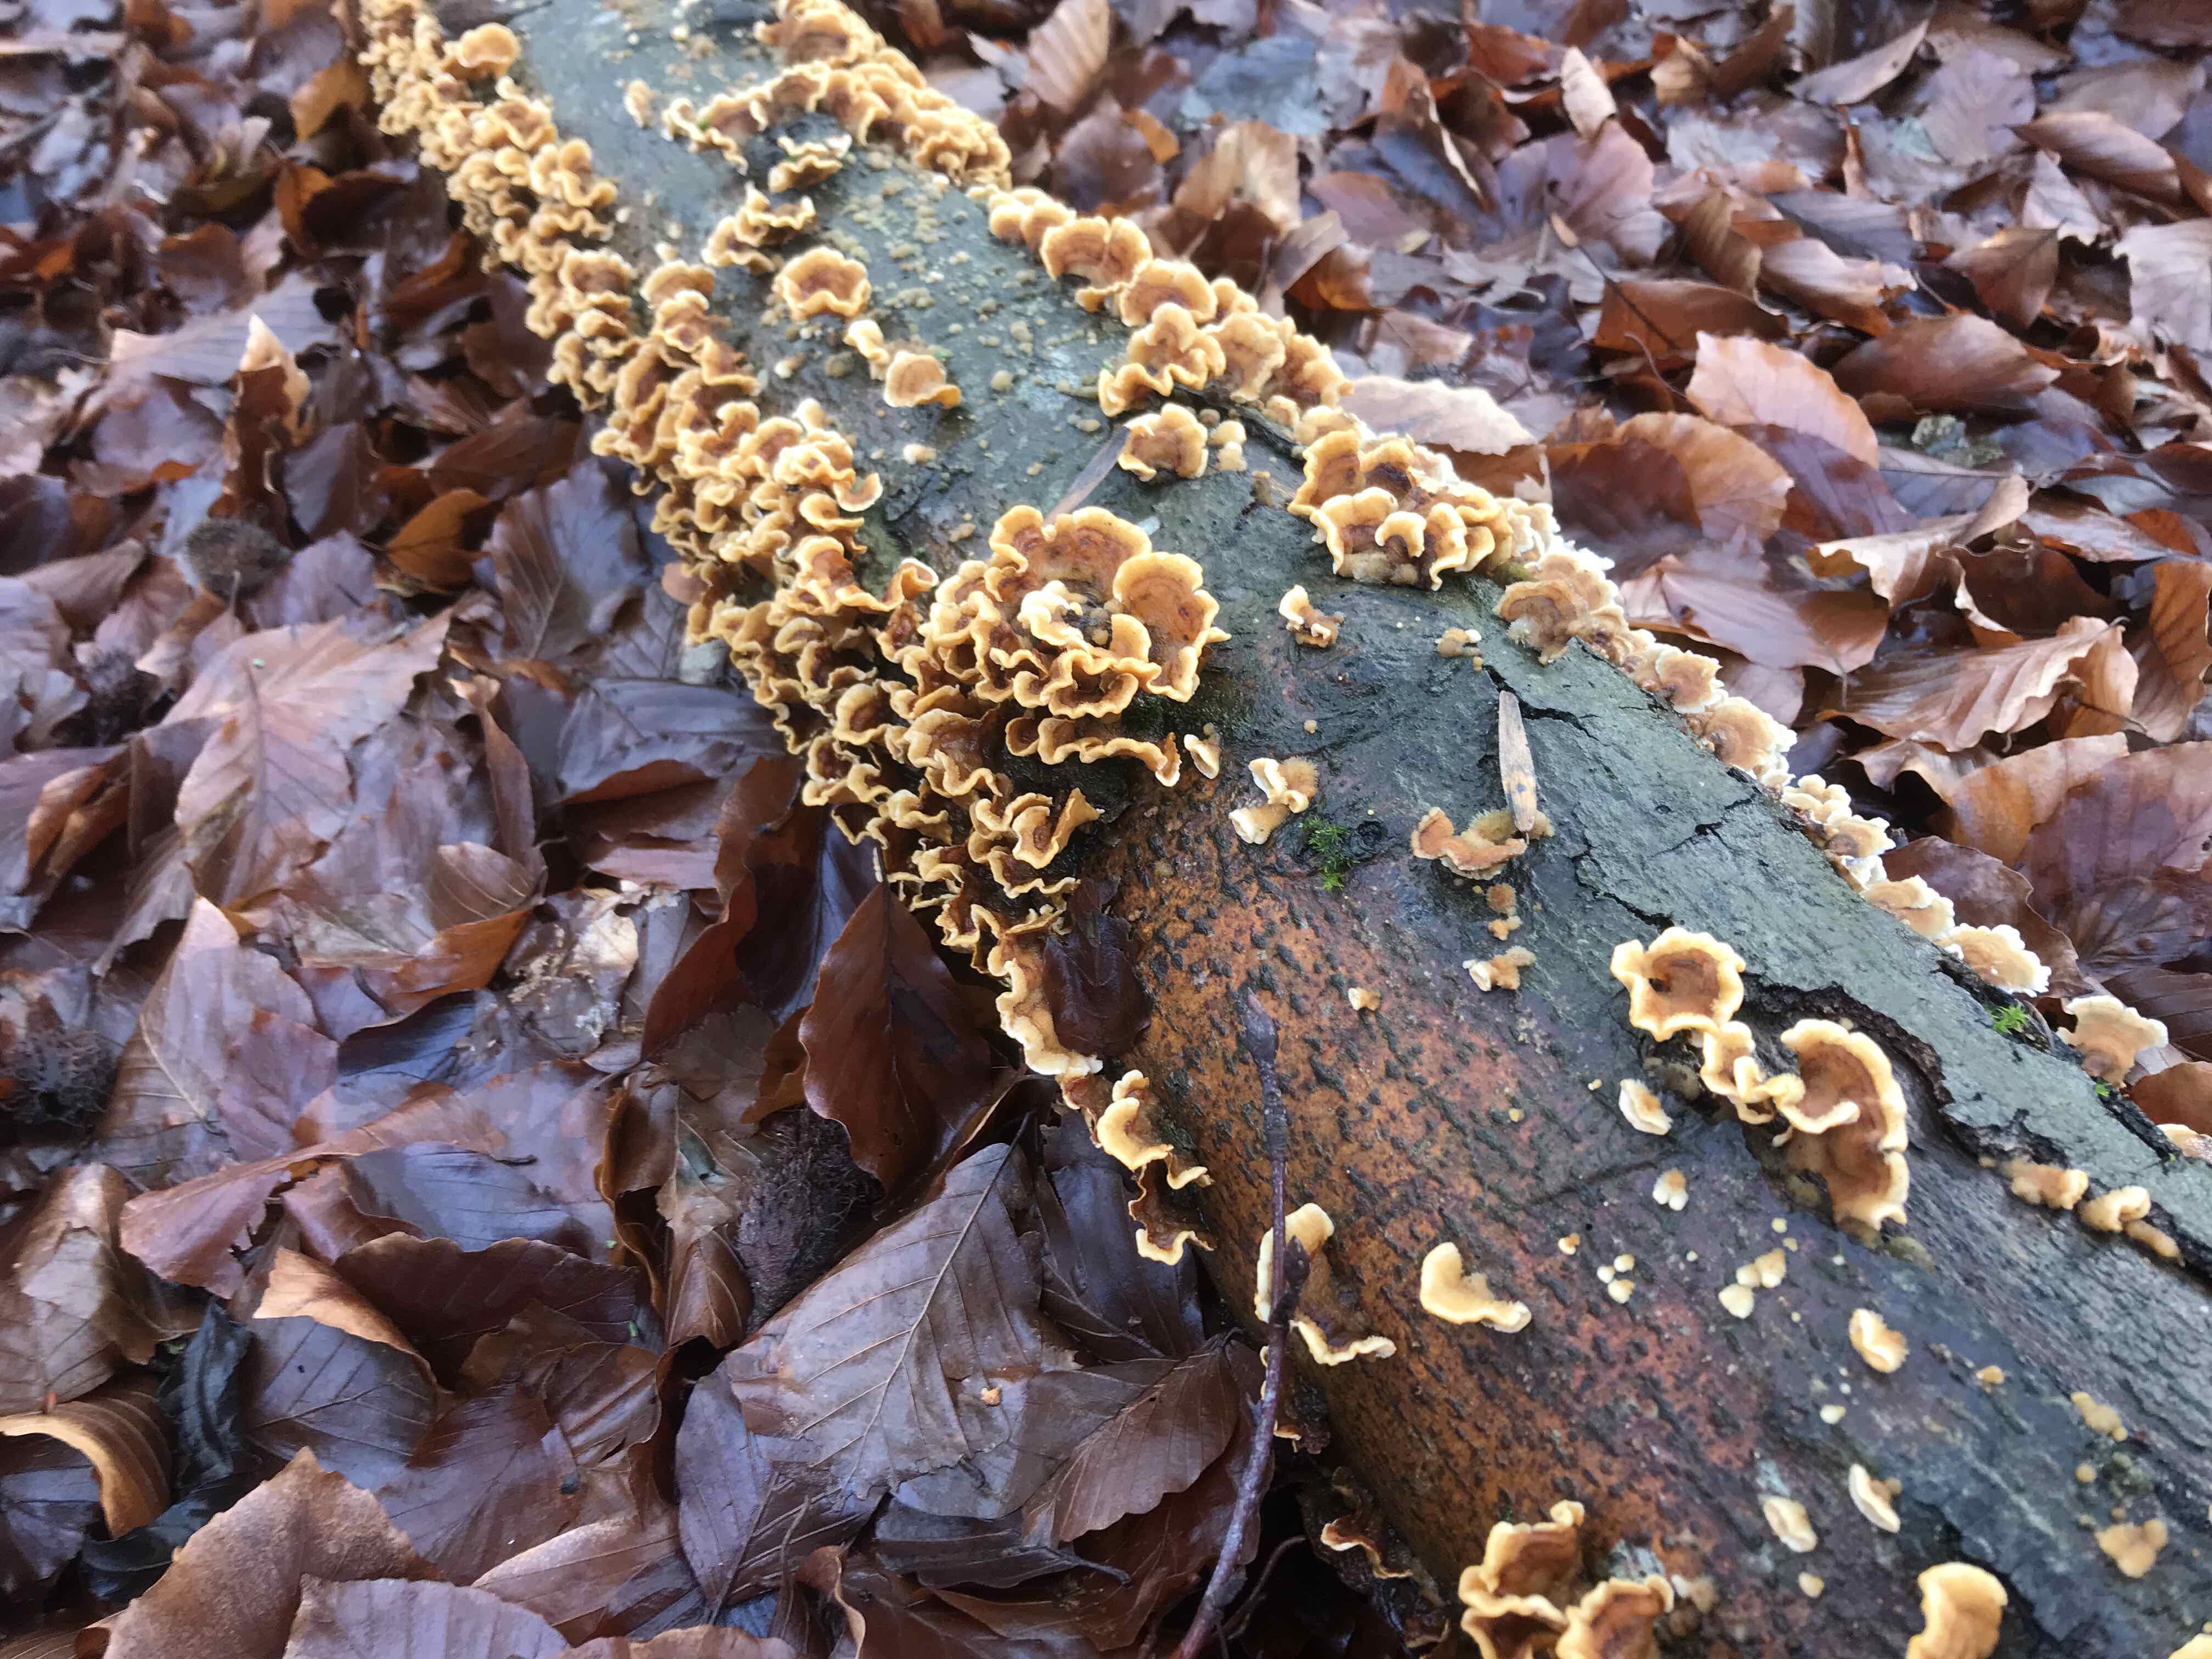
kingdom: Fungi
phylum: Basidiomycota
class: Agaricomycetes
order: Russulales
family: Stereaceae
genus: Stereum
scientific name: Stereum hirsutum
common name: håret lædersvamp
